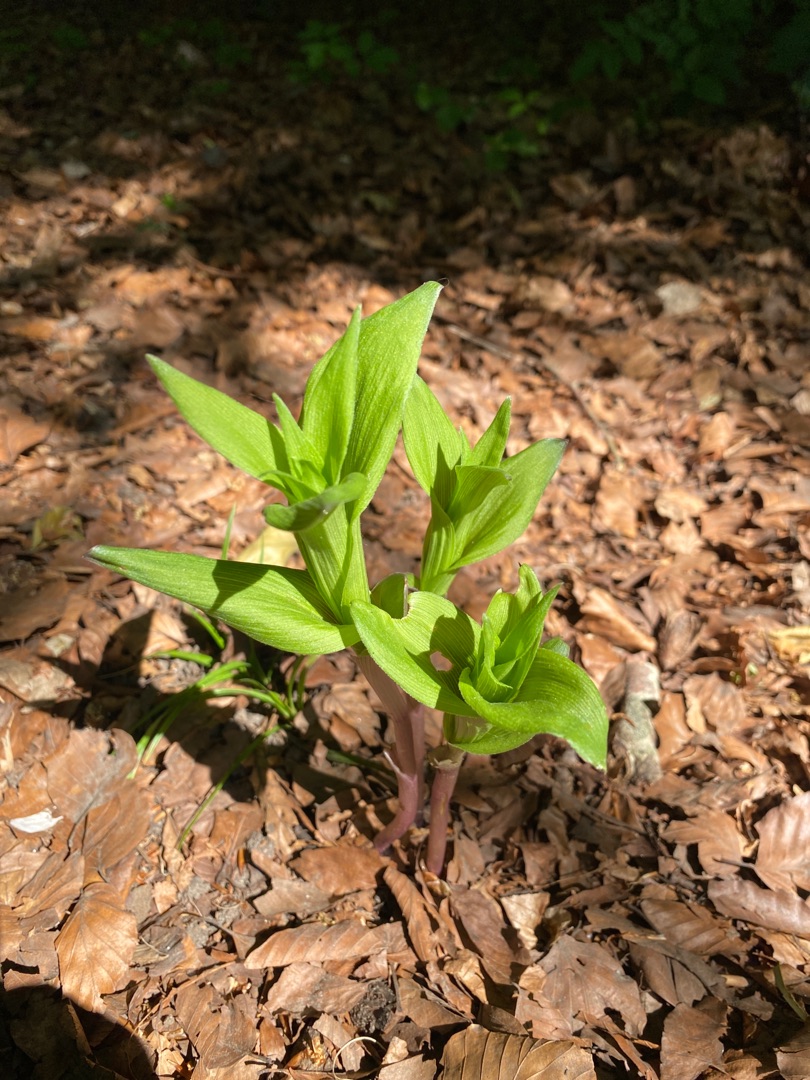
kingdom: Plantae
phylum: Tracheophyta
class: Liliopsida
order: Asparagales
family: Orchidaceae
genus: Epipactis
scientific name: Epipactis helleborine
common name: Skov-hullæbe
